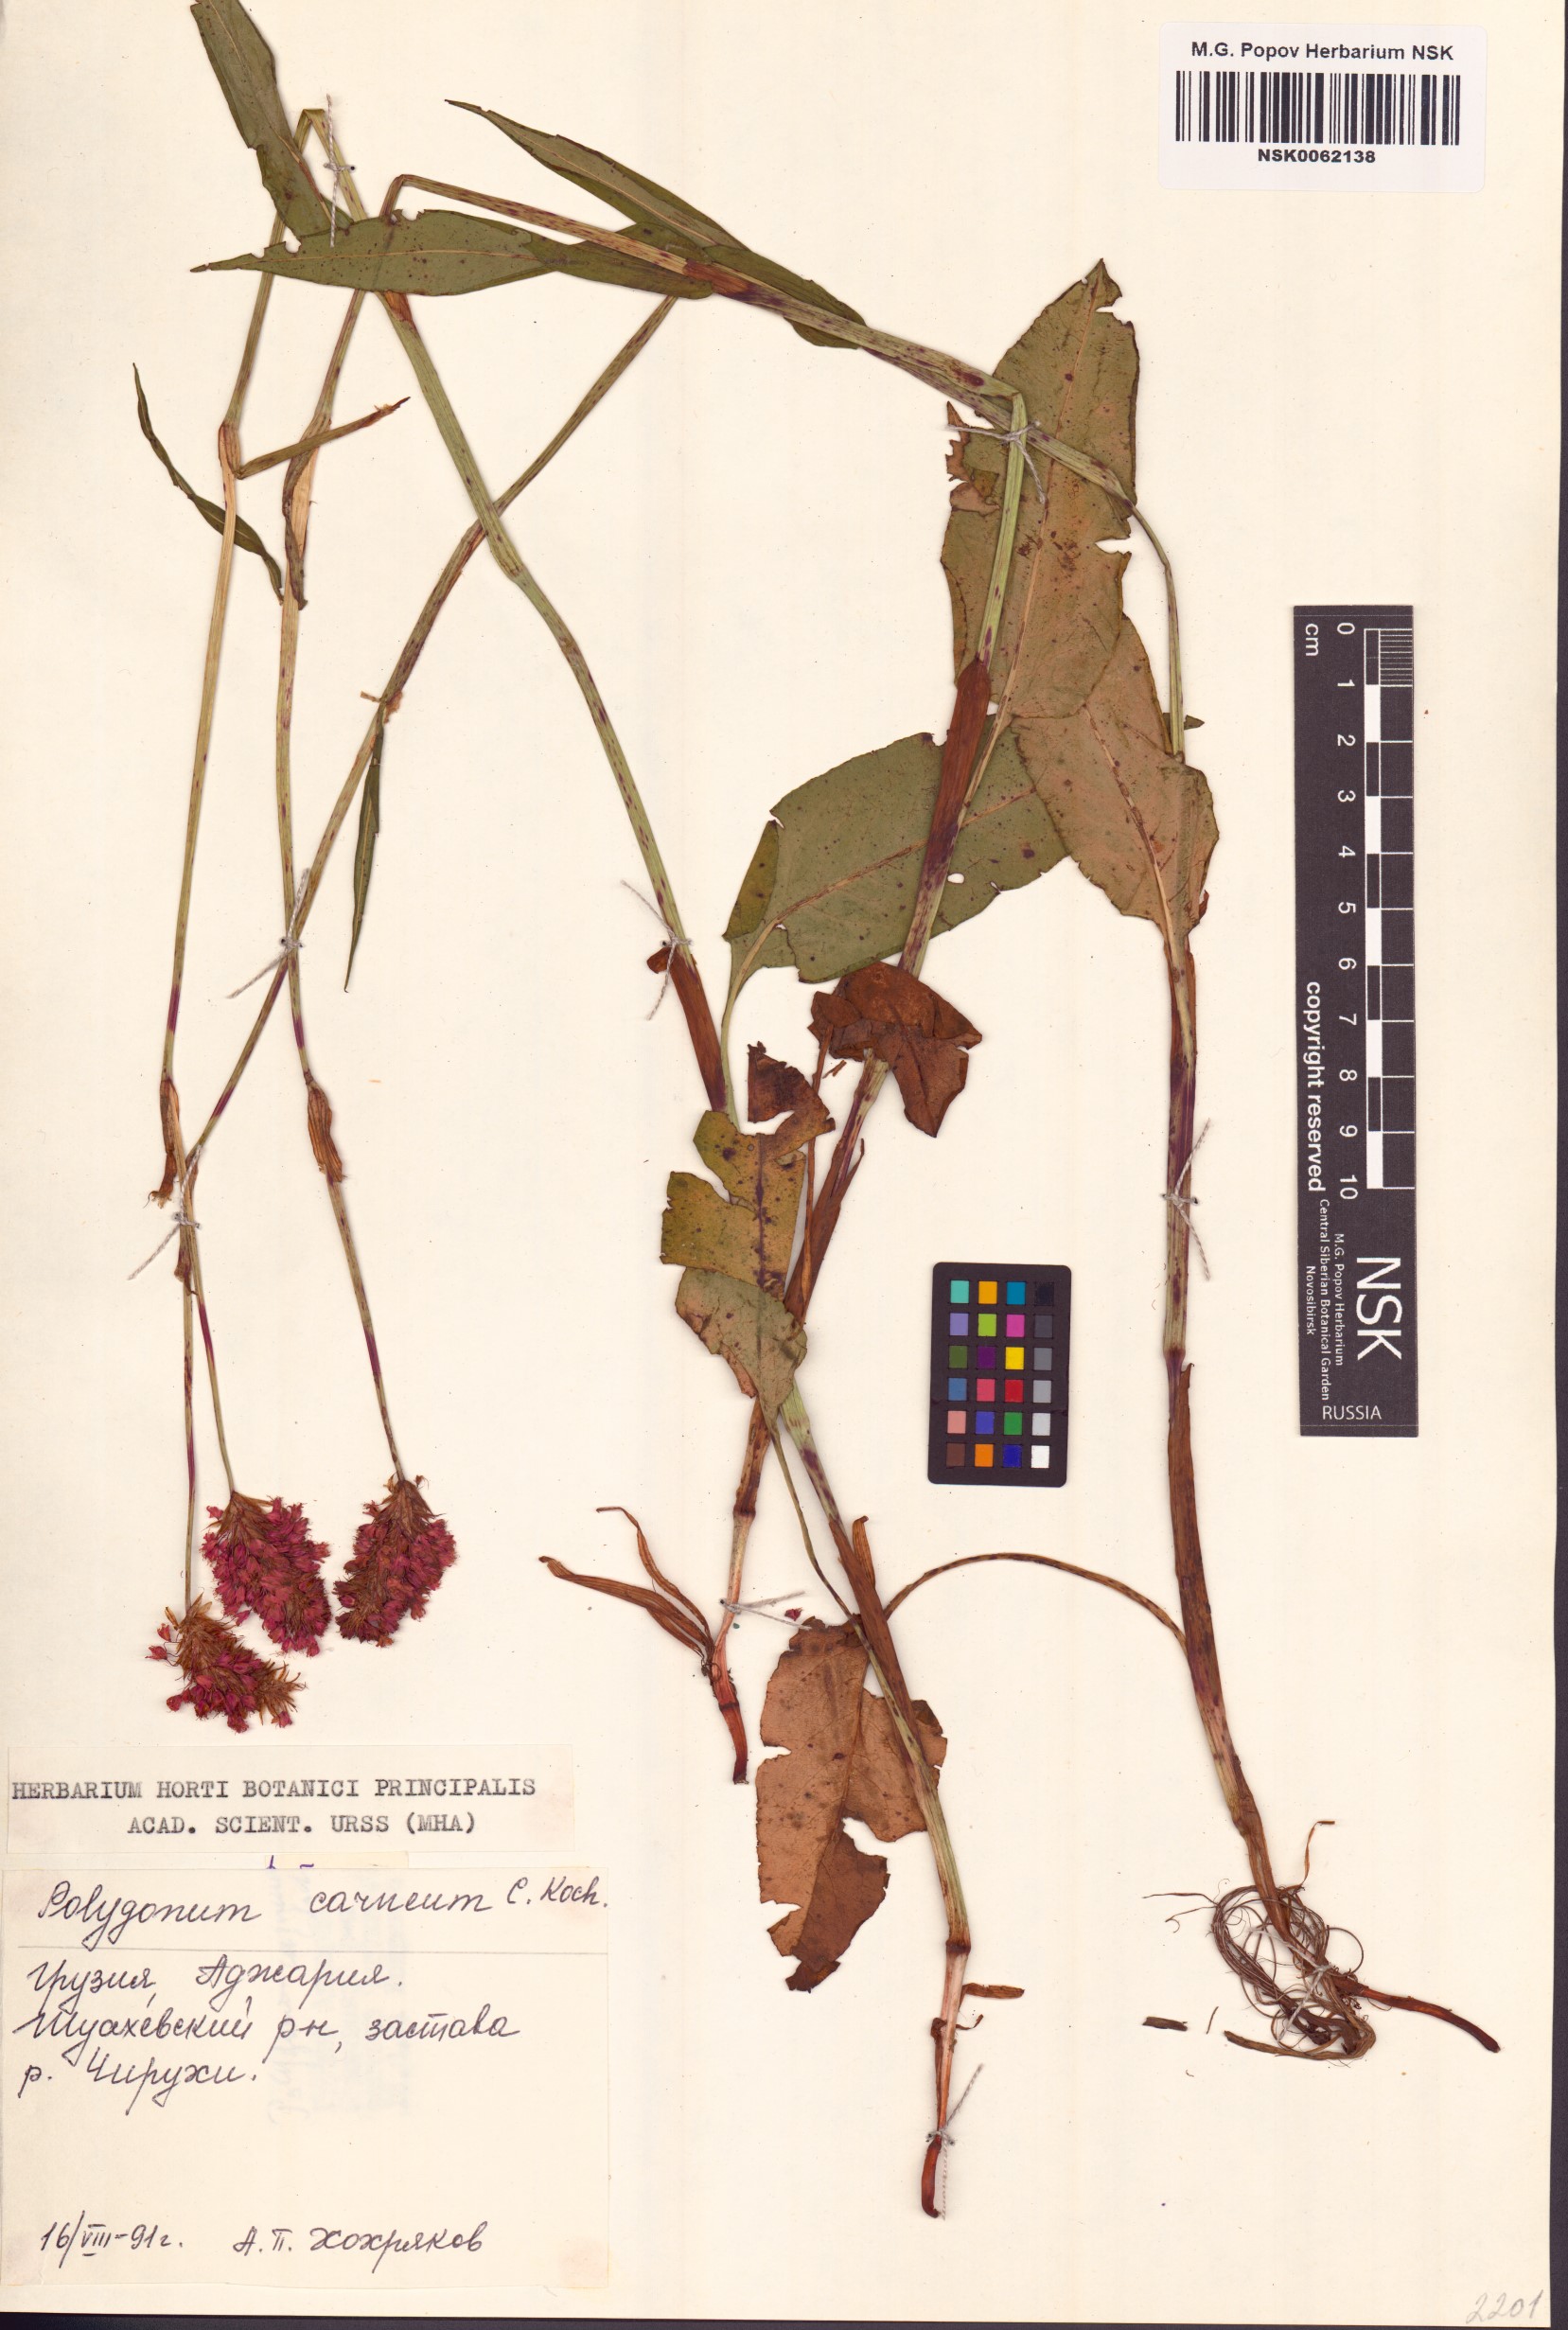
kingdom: Plantae
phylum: Tracheophyta
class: Magnoliopsida
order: Caryophyllales
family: Polygonaceae
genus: Polygonum
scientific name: Polygonum carneum
